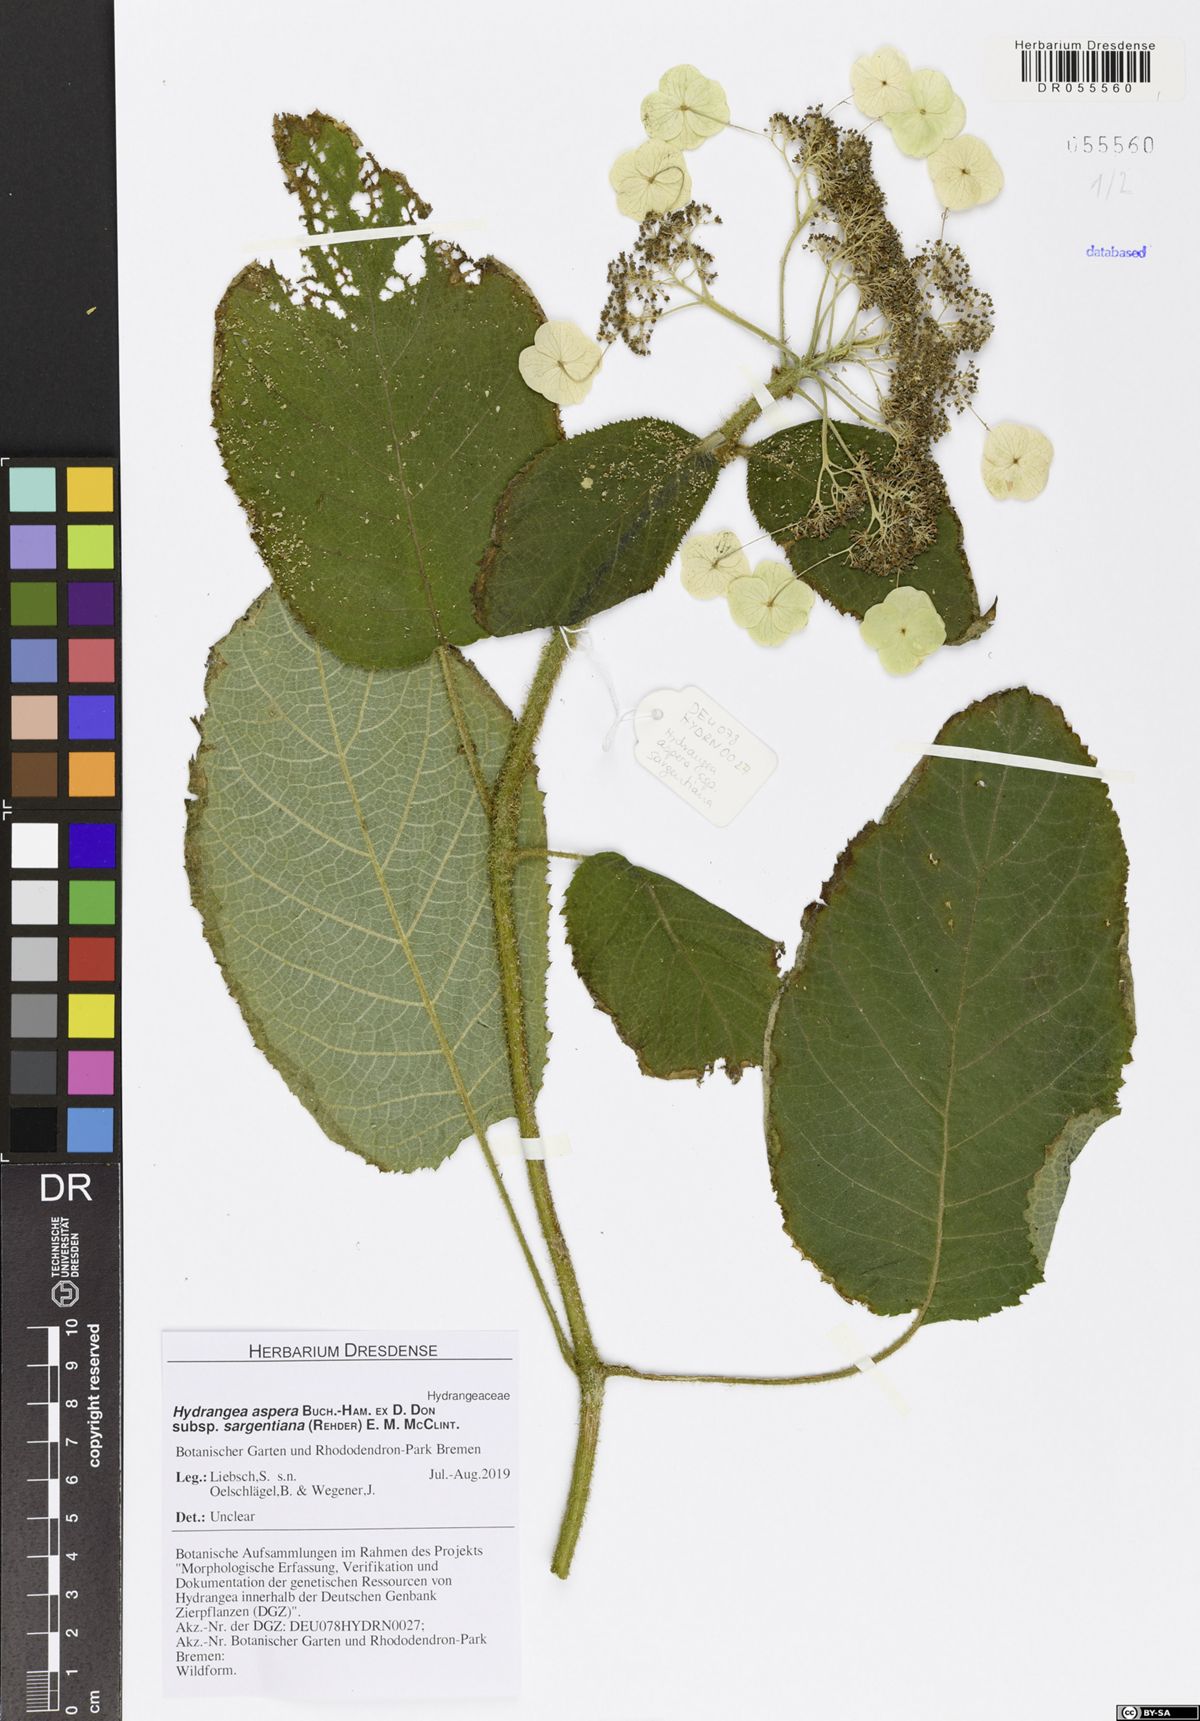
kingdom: Plantae
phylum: Tracheophyta
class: Magnoliopsida
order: Cornales
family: Hydrangeaceae
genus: Hydrangea
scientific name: Hydrangea sargentiana
